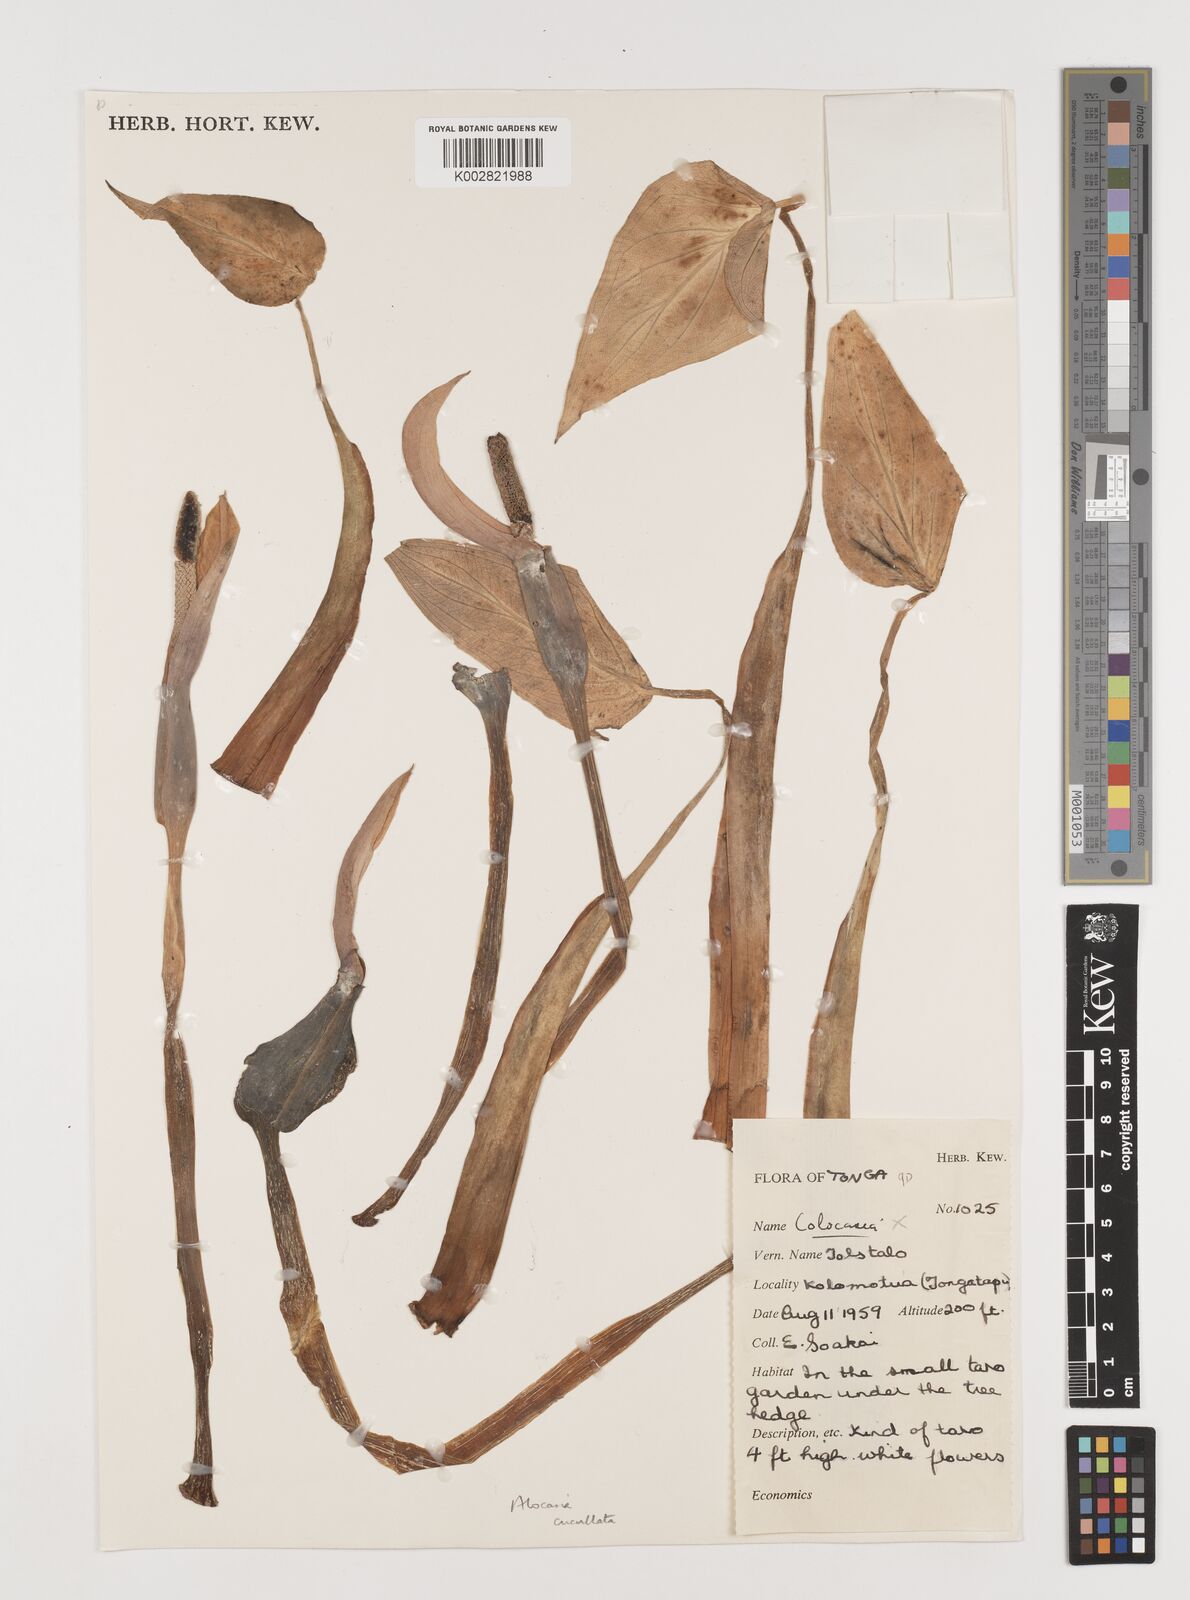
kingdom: Plantae
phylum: Tracheophyta
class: Liliopsida
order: Alismatales
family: Araceae
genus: Alocasia
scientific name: Alocasia cucullata
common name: Buddha's hand
